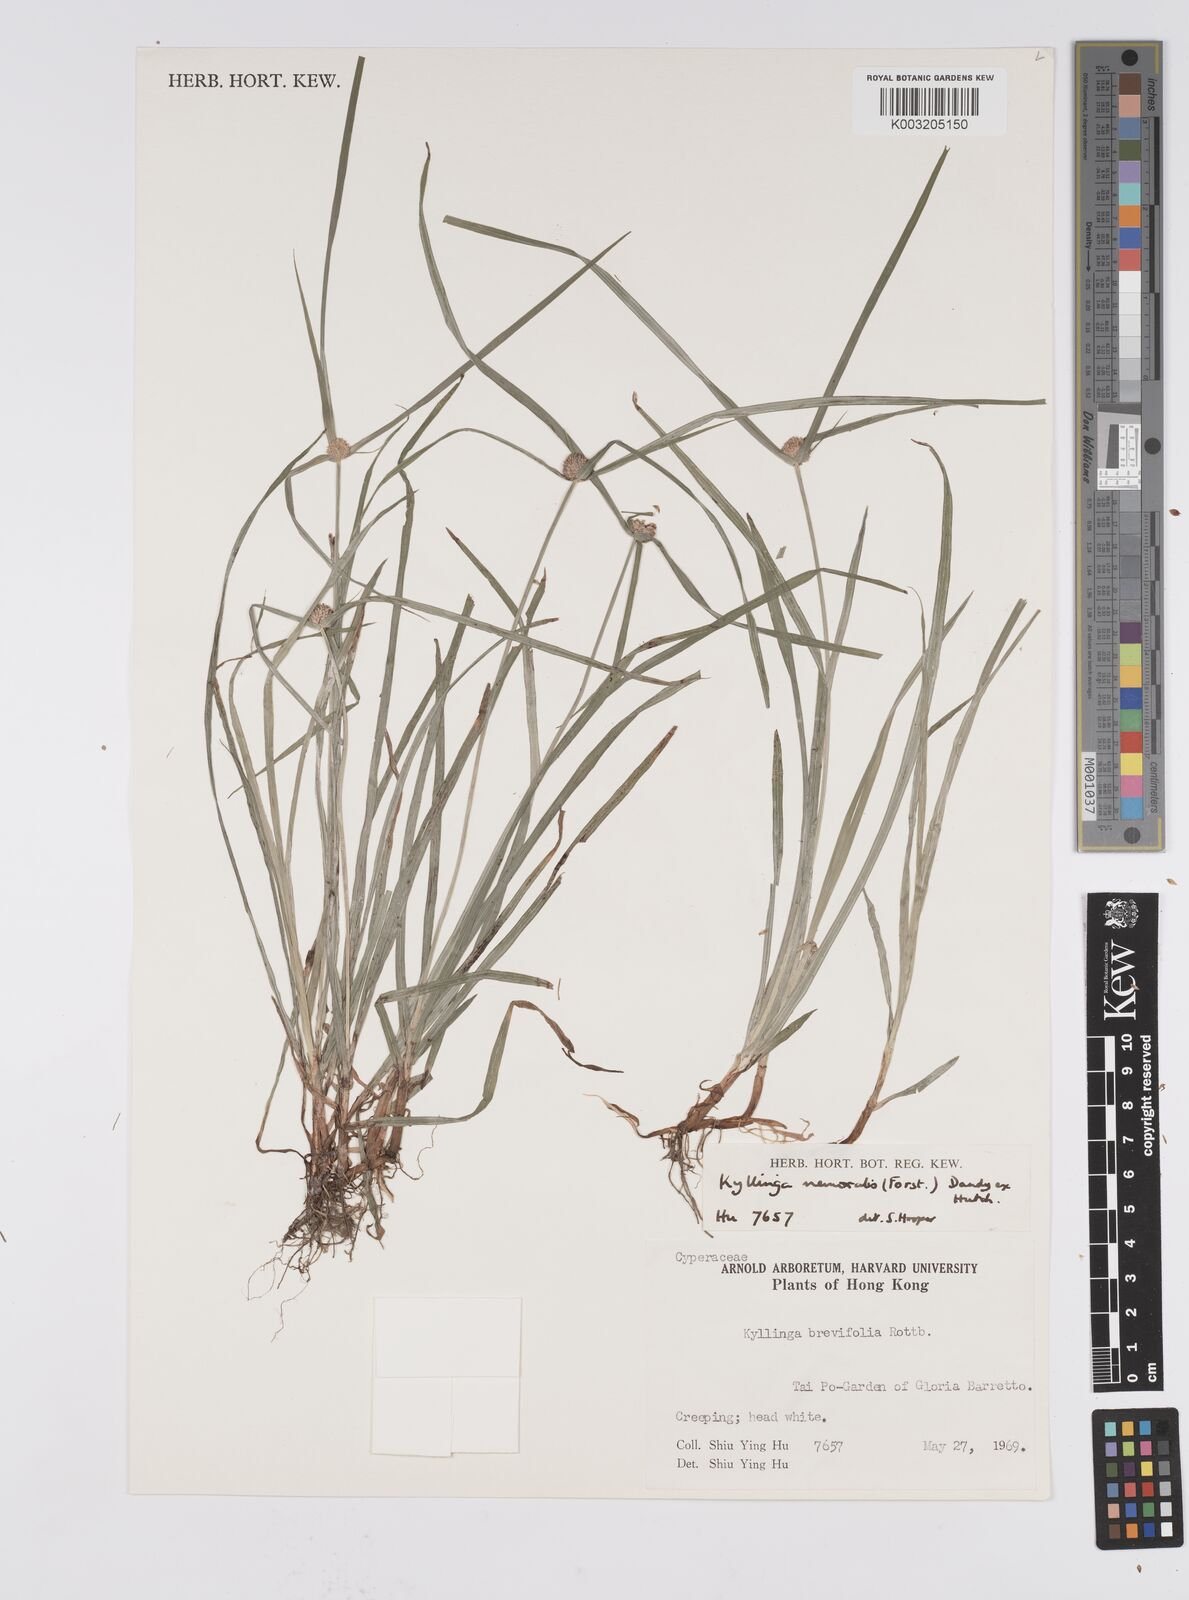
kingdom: Plantae
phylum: Tracheophyta
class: Liliopsida
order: Poales
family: Cyperaceae
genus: Cyperus
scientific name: Cyperus nemoralis
